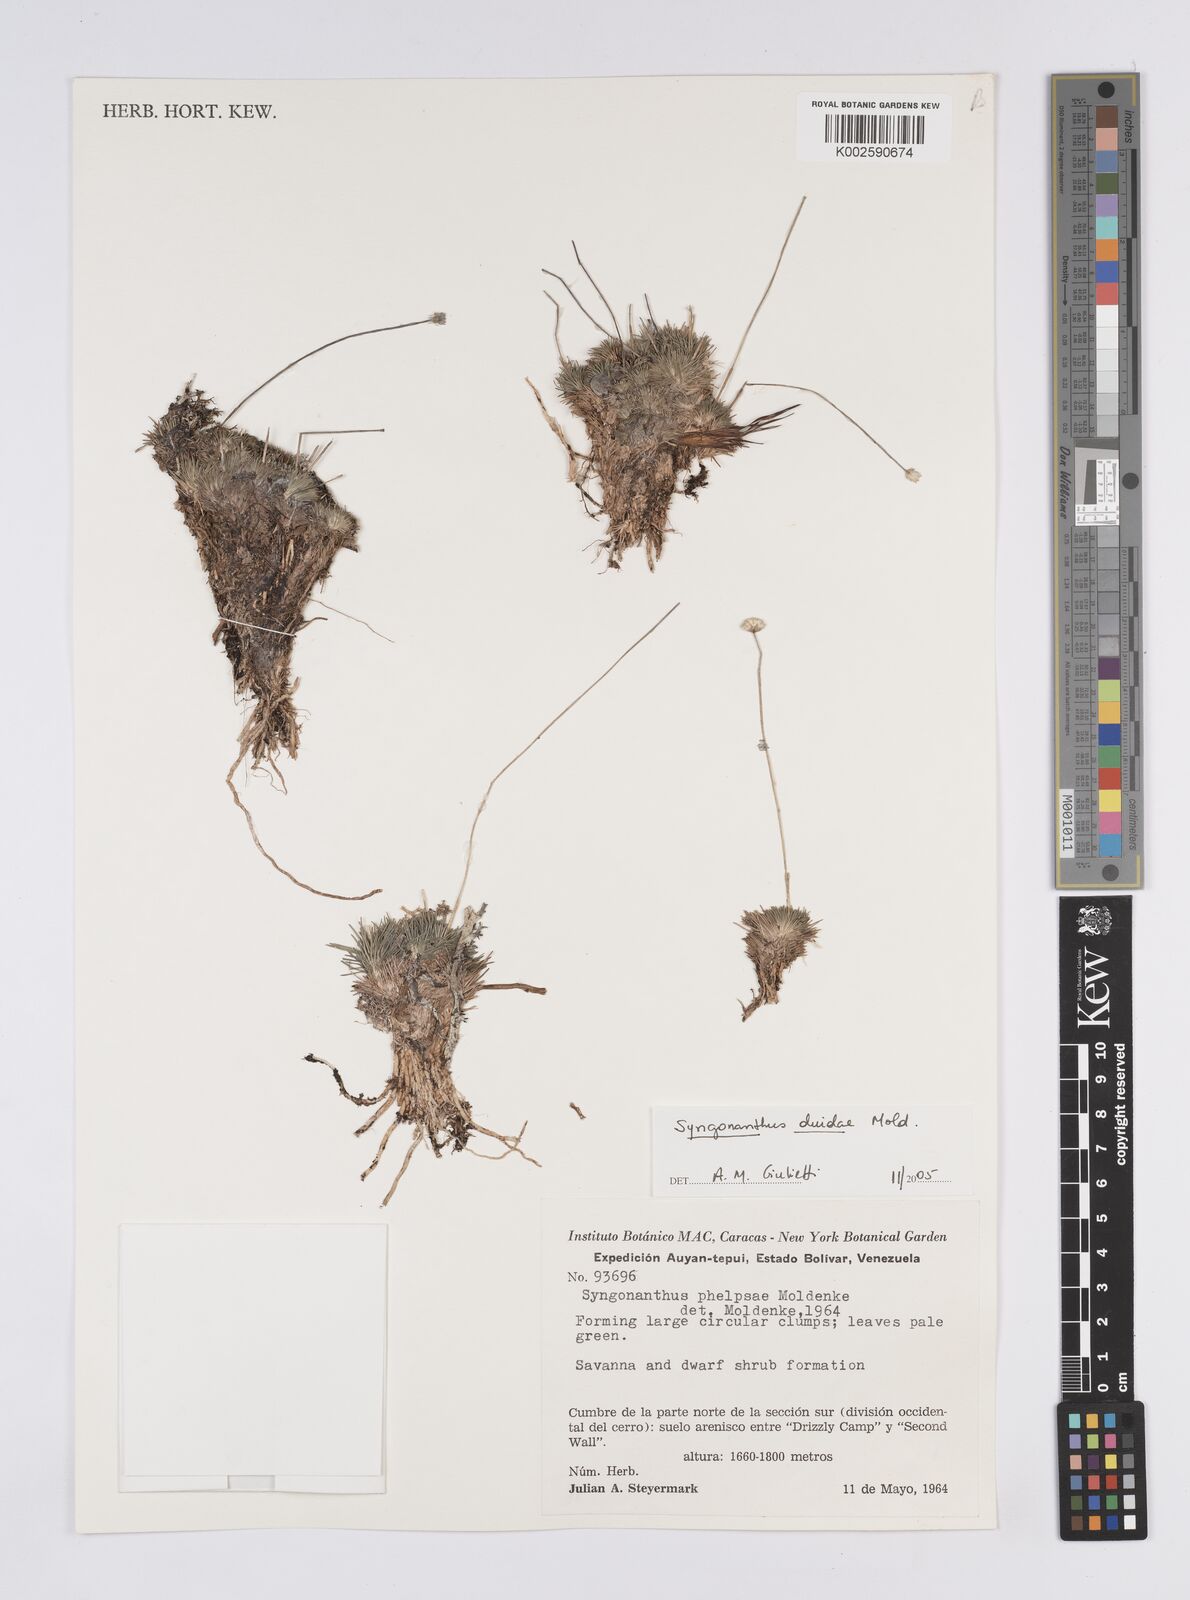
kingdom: Plantae
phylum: Tracheophyta
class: Liliopsida
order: Poales
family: Eriocaulaceae
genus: Syngonanthus
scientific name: Syngonanthus duidae
